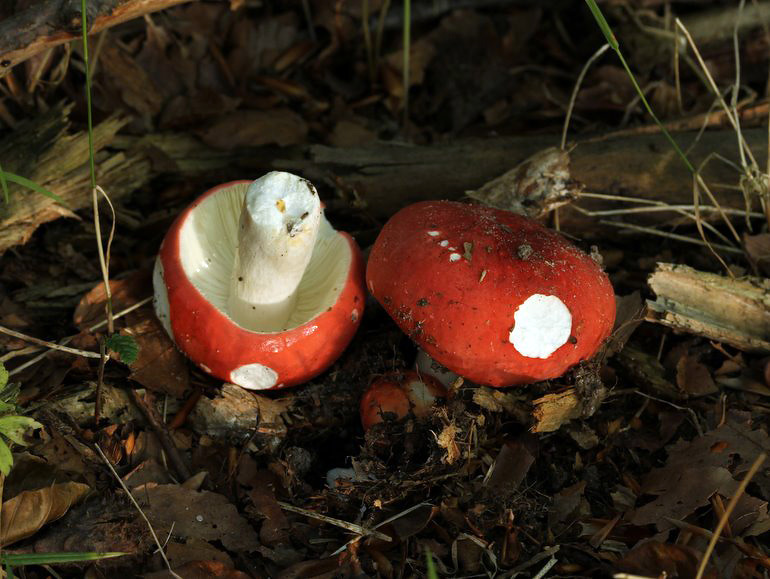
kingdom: Fungi
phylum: Basidiomycota
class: Agaricomycetes
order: Russulales
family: Russulaceae
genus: Russula
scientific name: Russula rosea
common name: fastkødet skørhat
